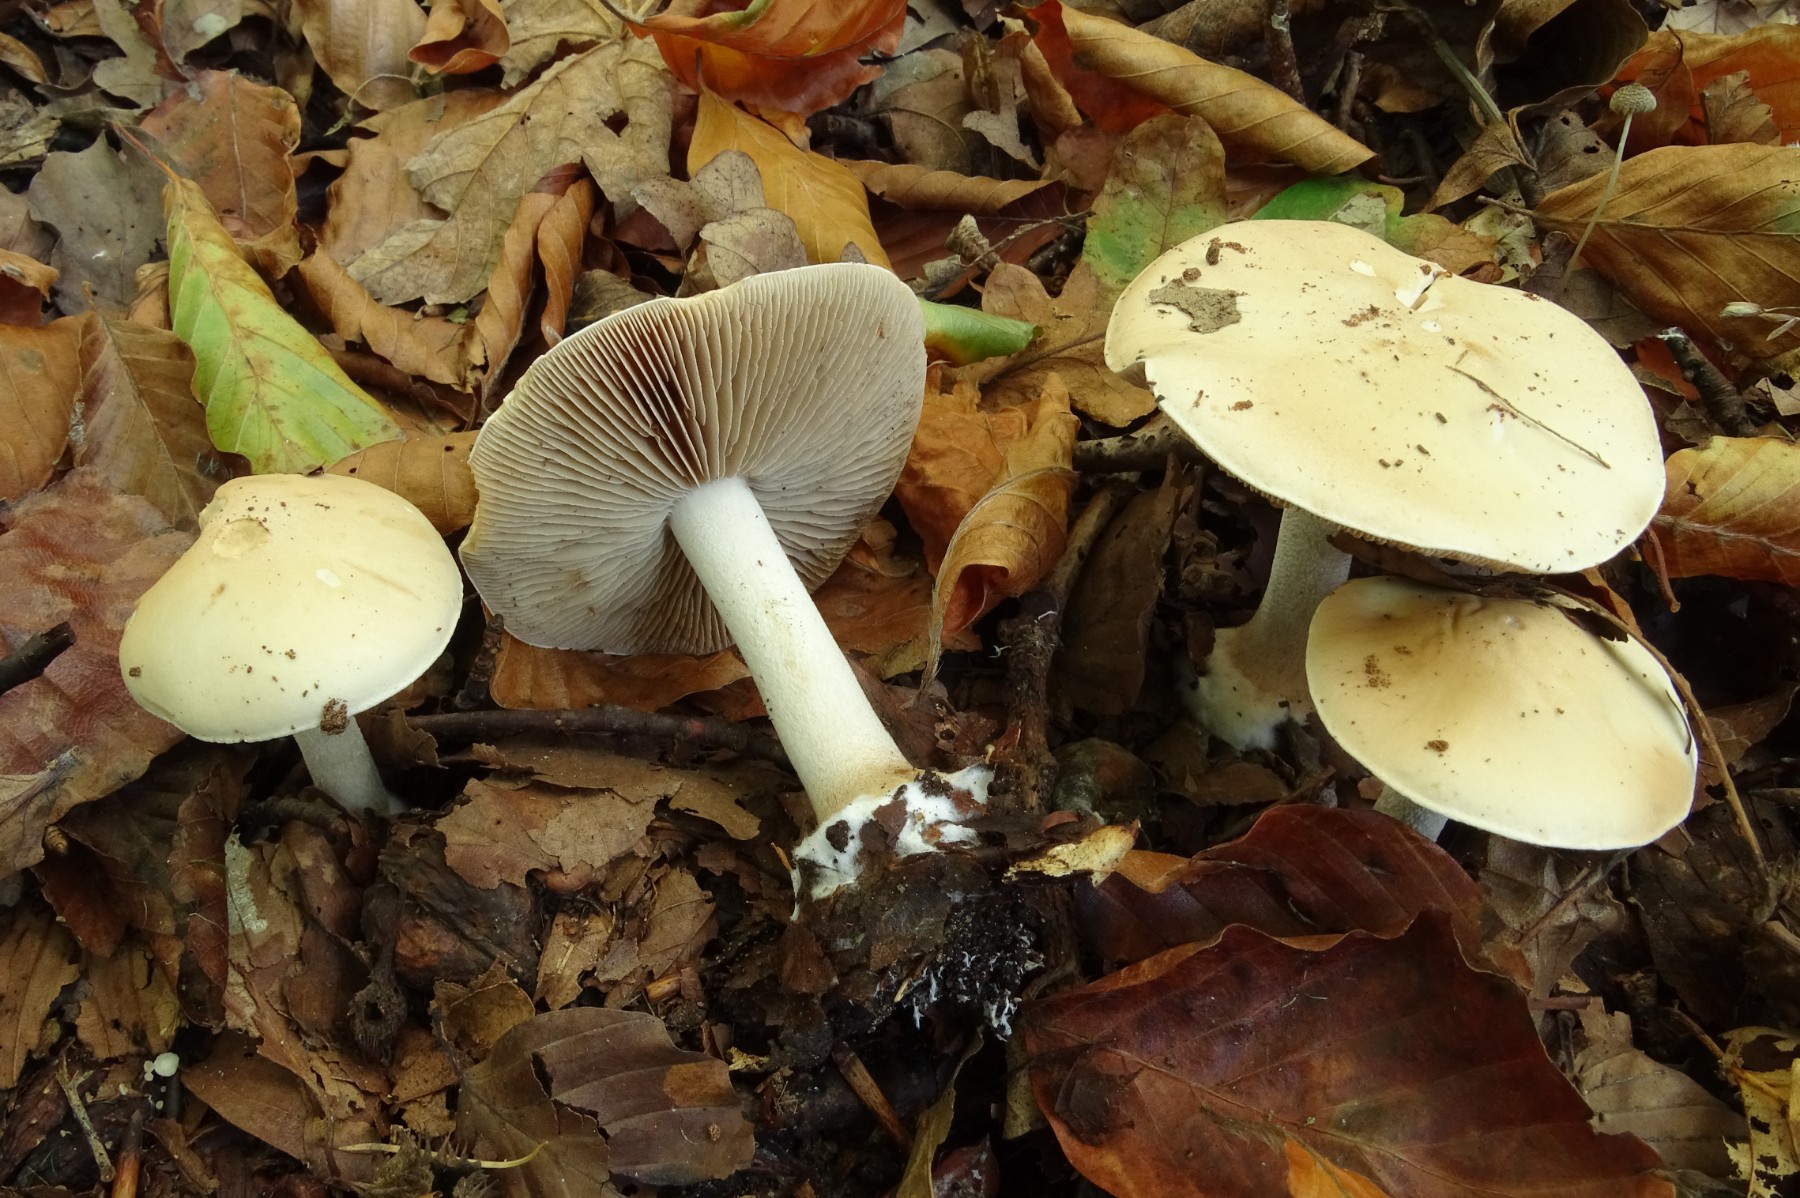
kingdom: Fungi
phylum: Basidiomycota
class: Agaricomycetes
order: Agaricales
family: Hymenogastraceae
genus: Hebeloma
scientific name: Hebeloma sinapizans
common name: ræddike-tåreblad
